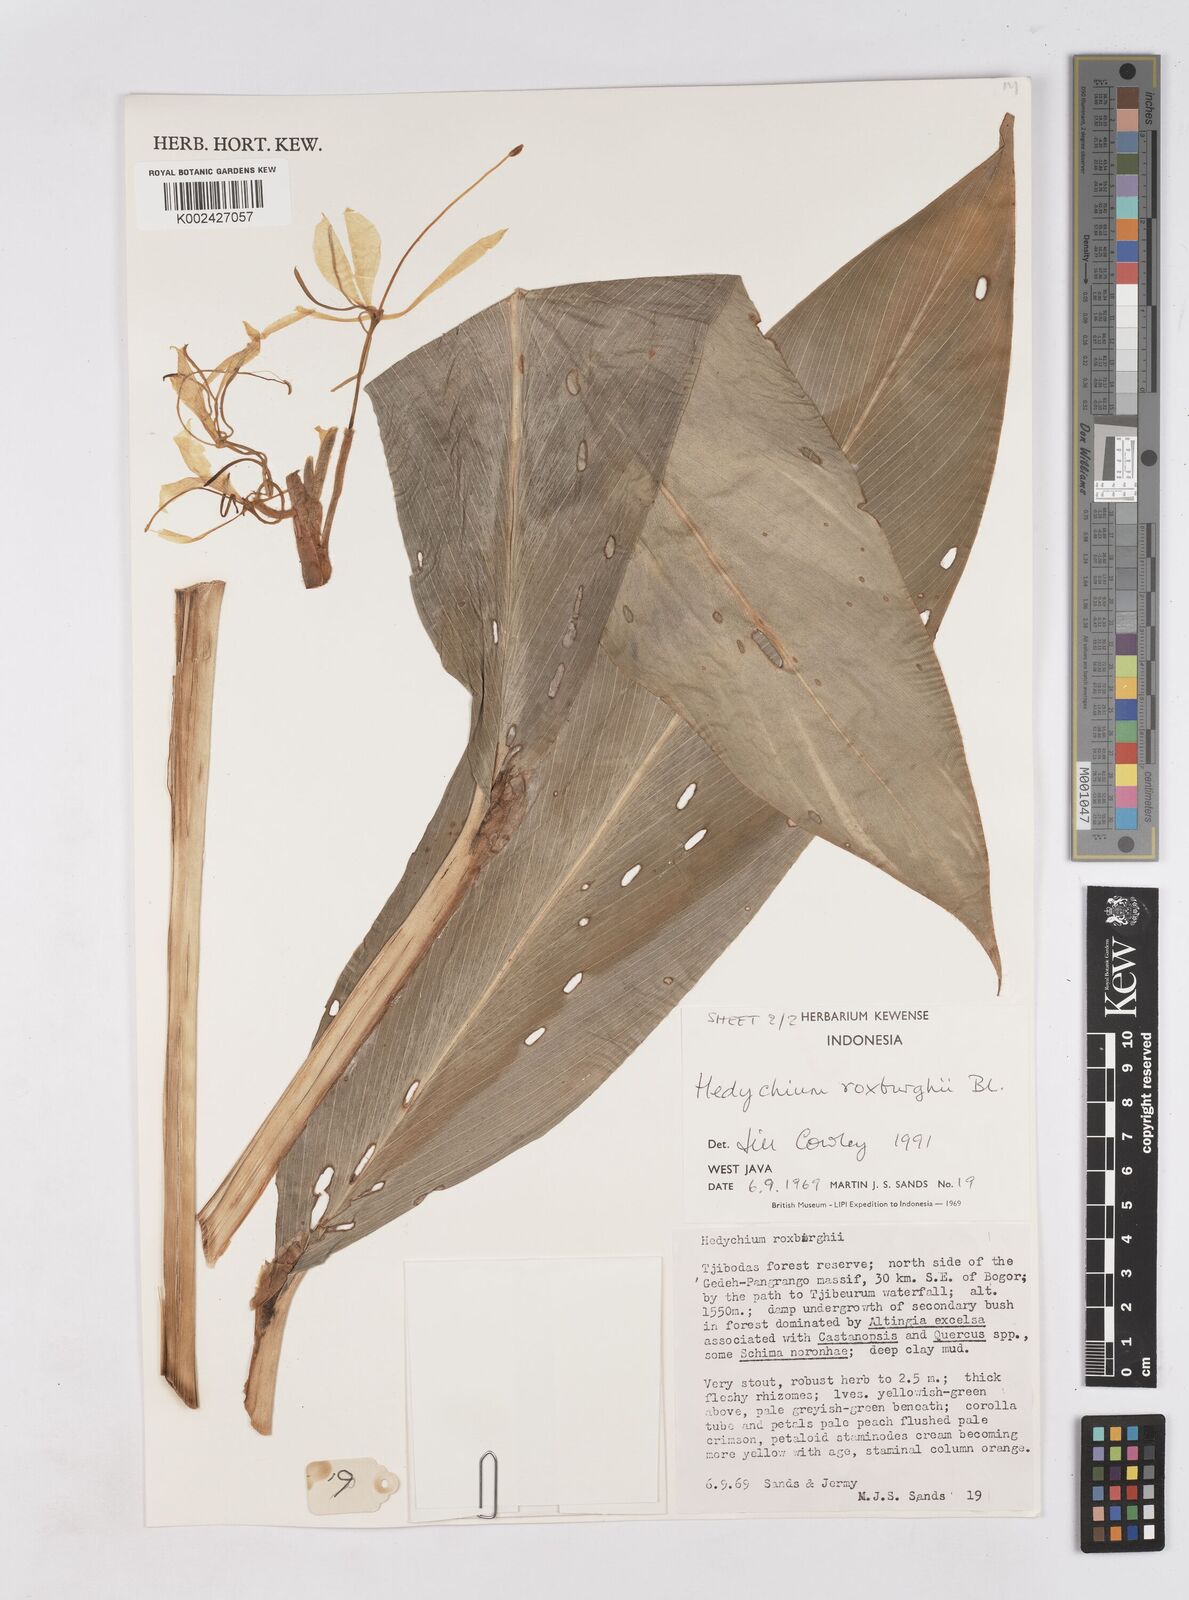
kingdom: Plantae
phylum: Tracheophyta
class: Liliopsida
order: Zingiberales
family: Zingiberaceae
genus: Hedychium
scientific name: Hedychium roxburghii
